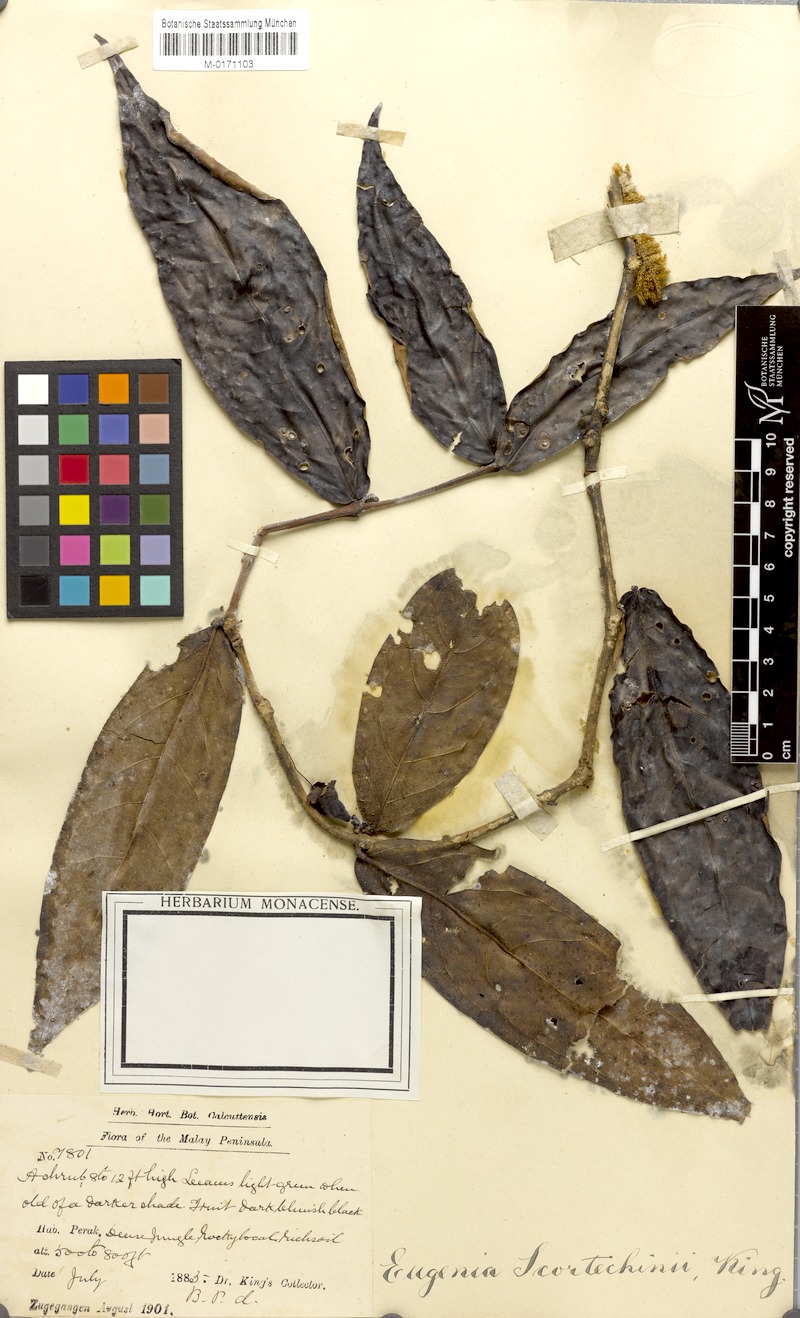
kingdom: Plantae
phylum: Tracheophyta
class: Magnoliopsida
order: Myrtales
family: Myrtaceae
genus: Syzygium
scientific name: Syzygium scortechinii
